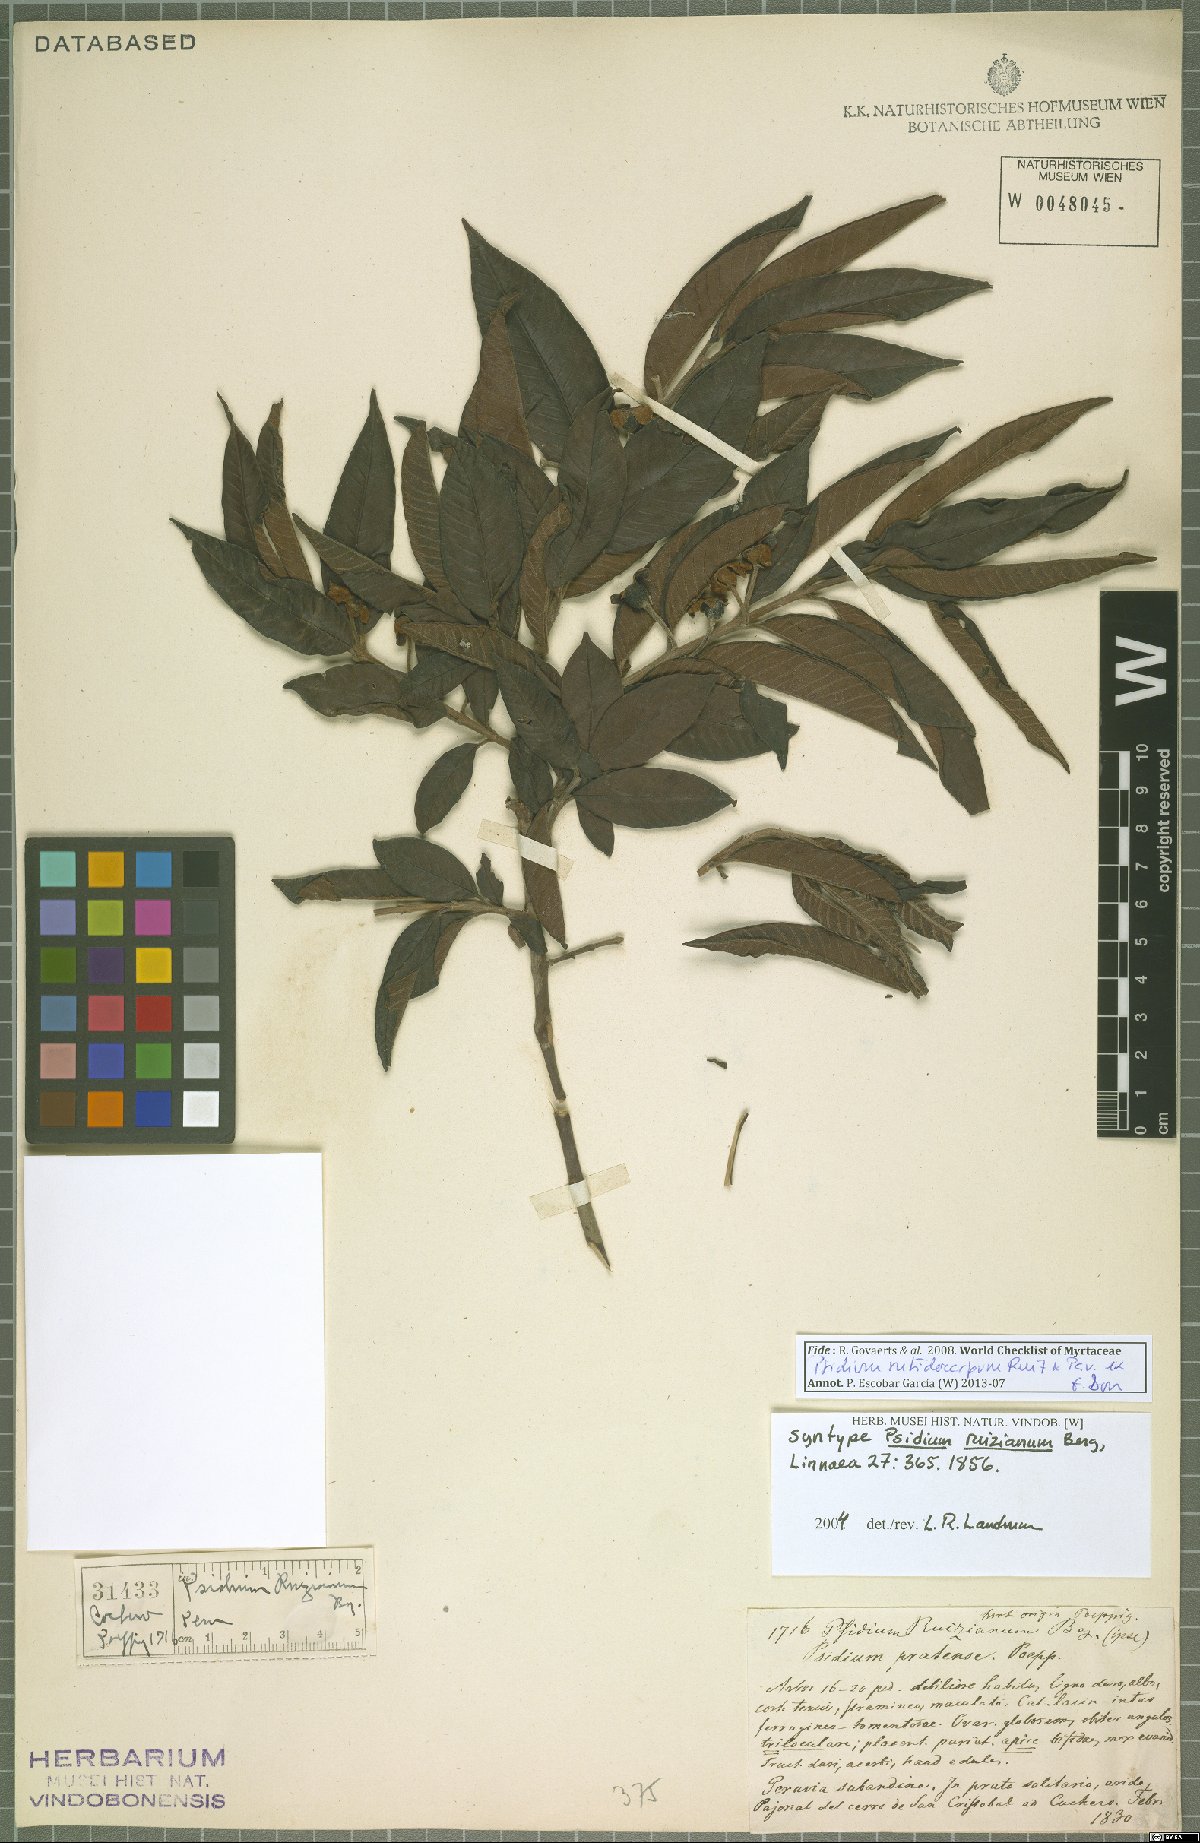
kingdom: Plantae
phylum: Tracheophyta
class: Magnoliopsida
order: Myrtales
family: Myrtaceae
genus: Psidium
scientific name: Psidium rutidocarpum
